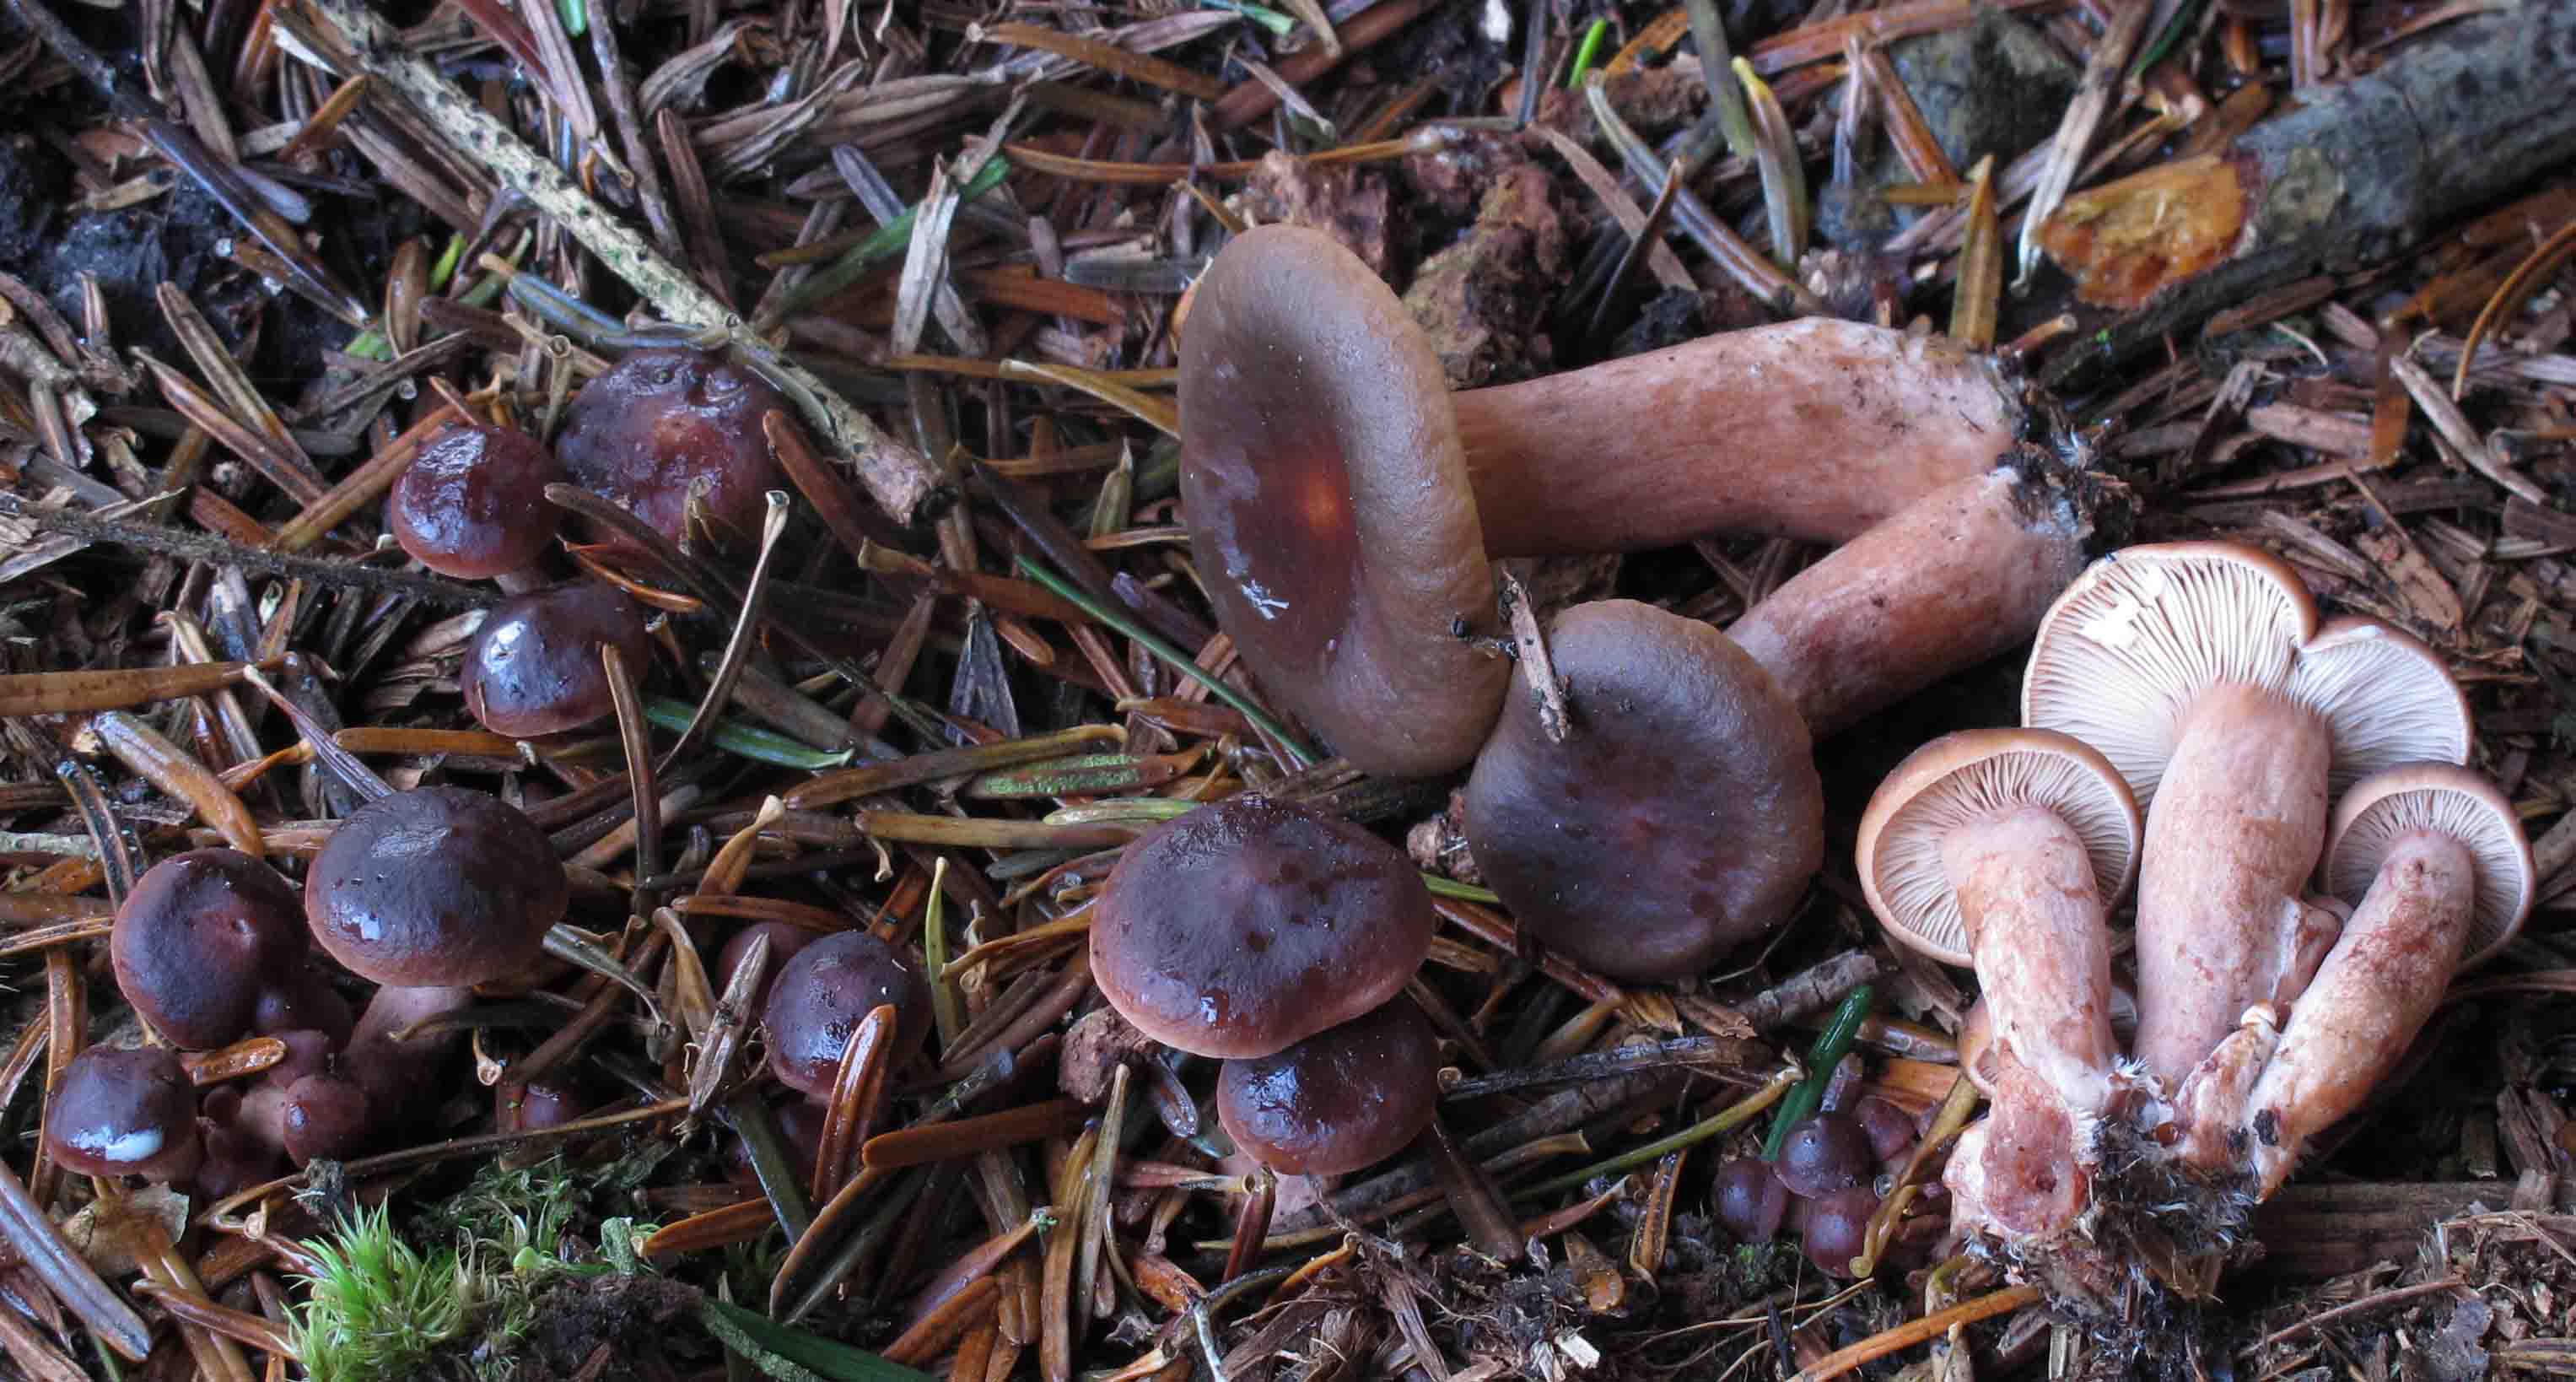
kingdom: Fungi
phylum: Basidiomycota
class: Agaricomycetes
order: Russulales
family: Russulaceae
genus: Lactarius
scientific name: Lactarius hepaticus
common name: leverbrun mælkehat
